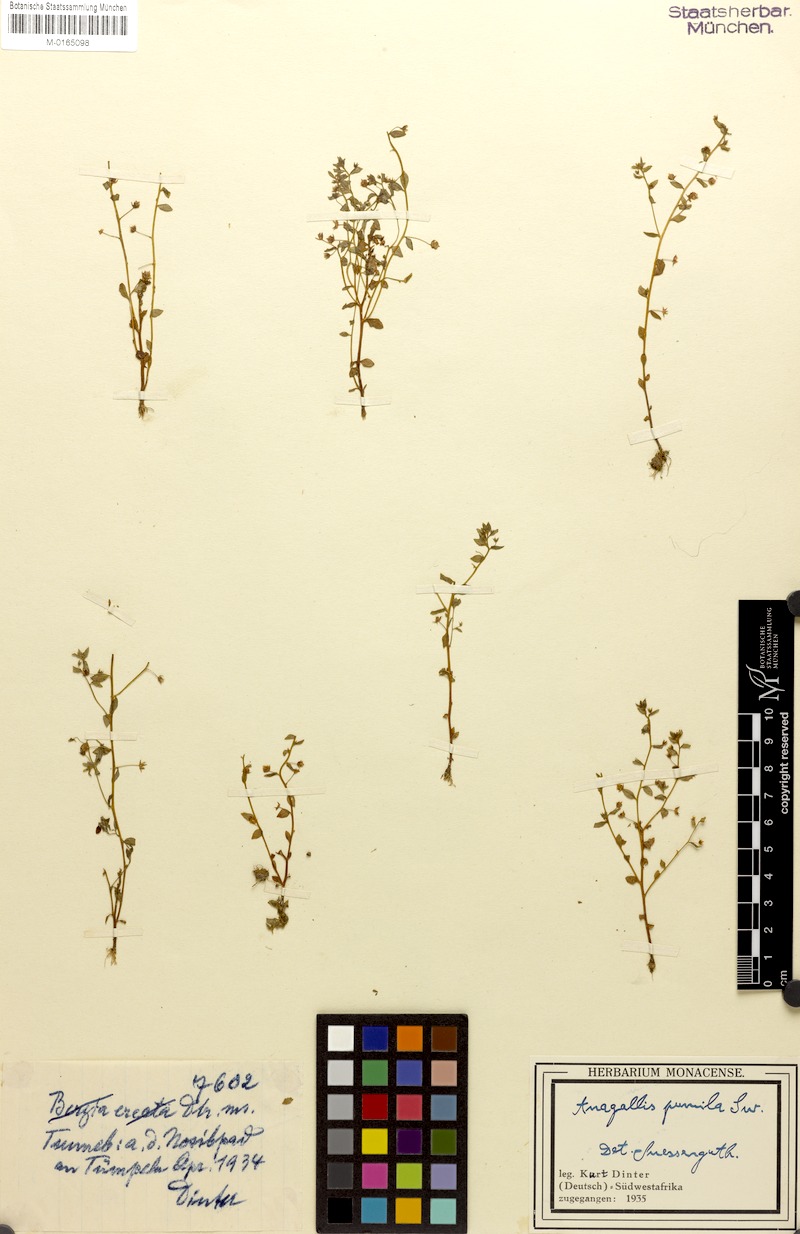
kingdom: Plantae
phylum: Tracheophyta
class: Magnoliopsida
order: Ericales
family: Primulaceae
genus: Lysimachia
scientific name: Lysimachia ovalis
